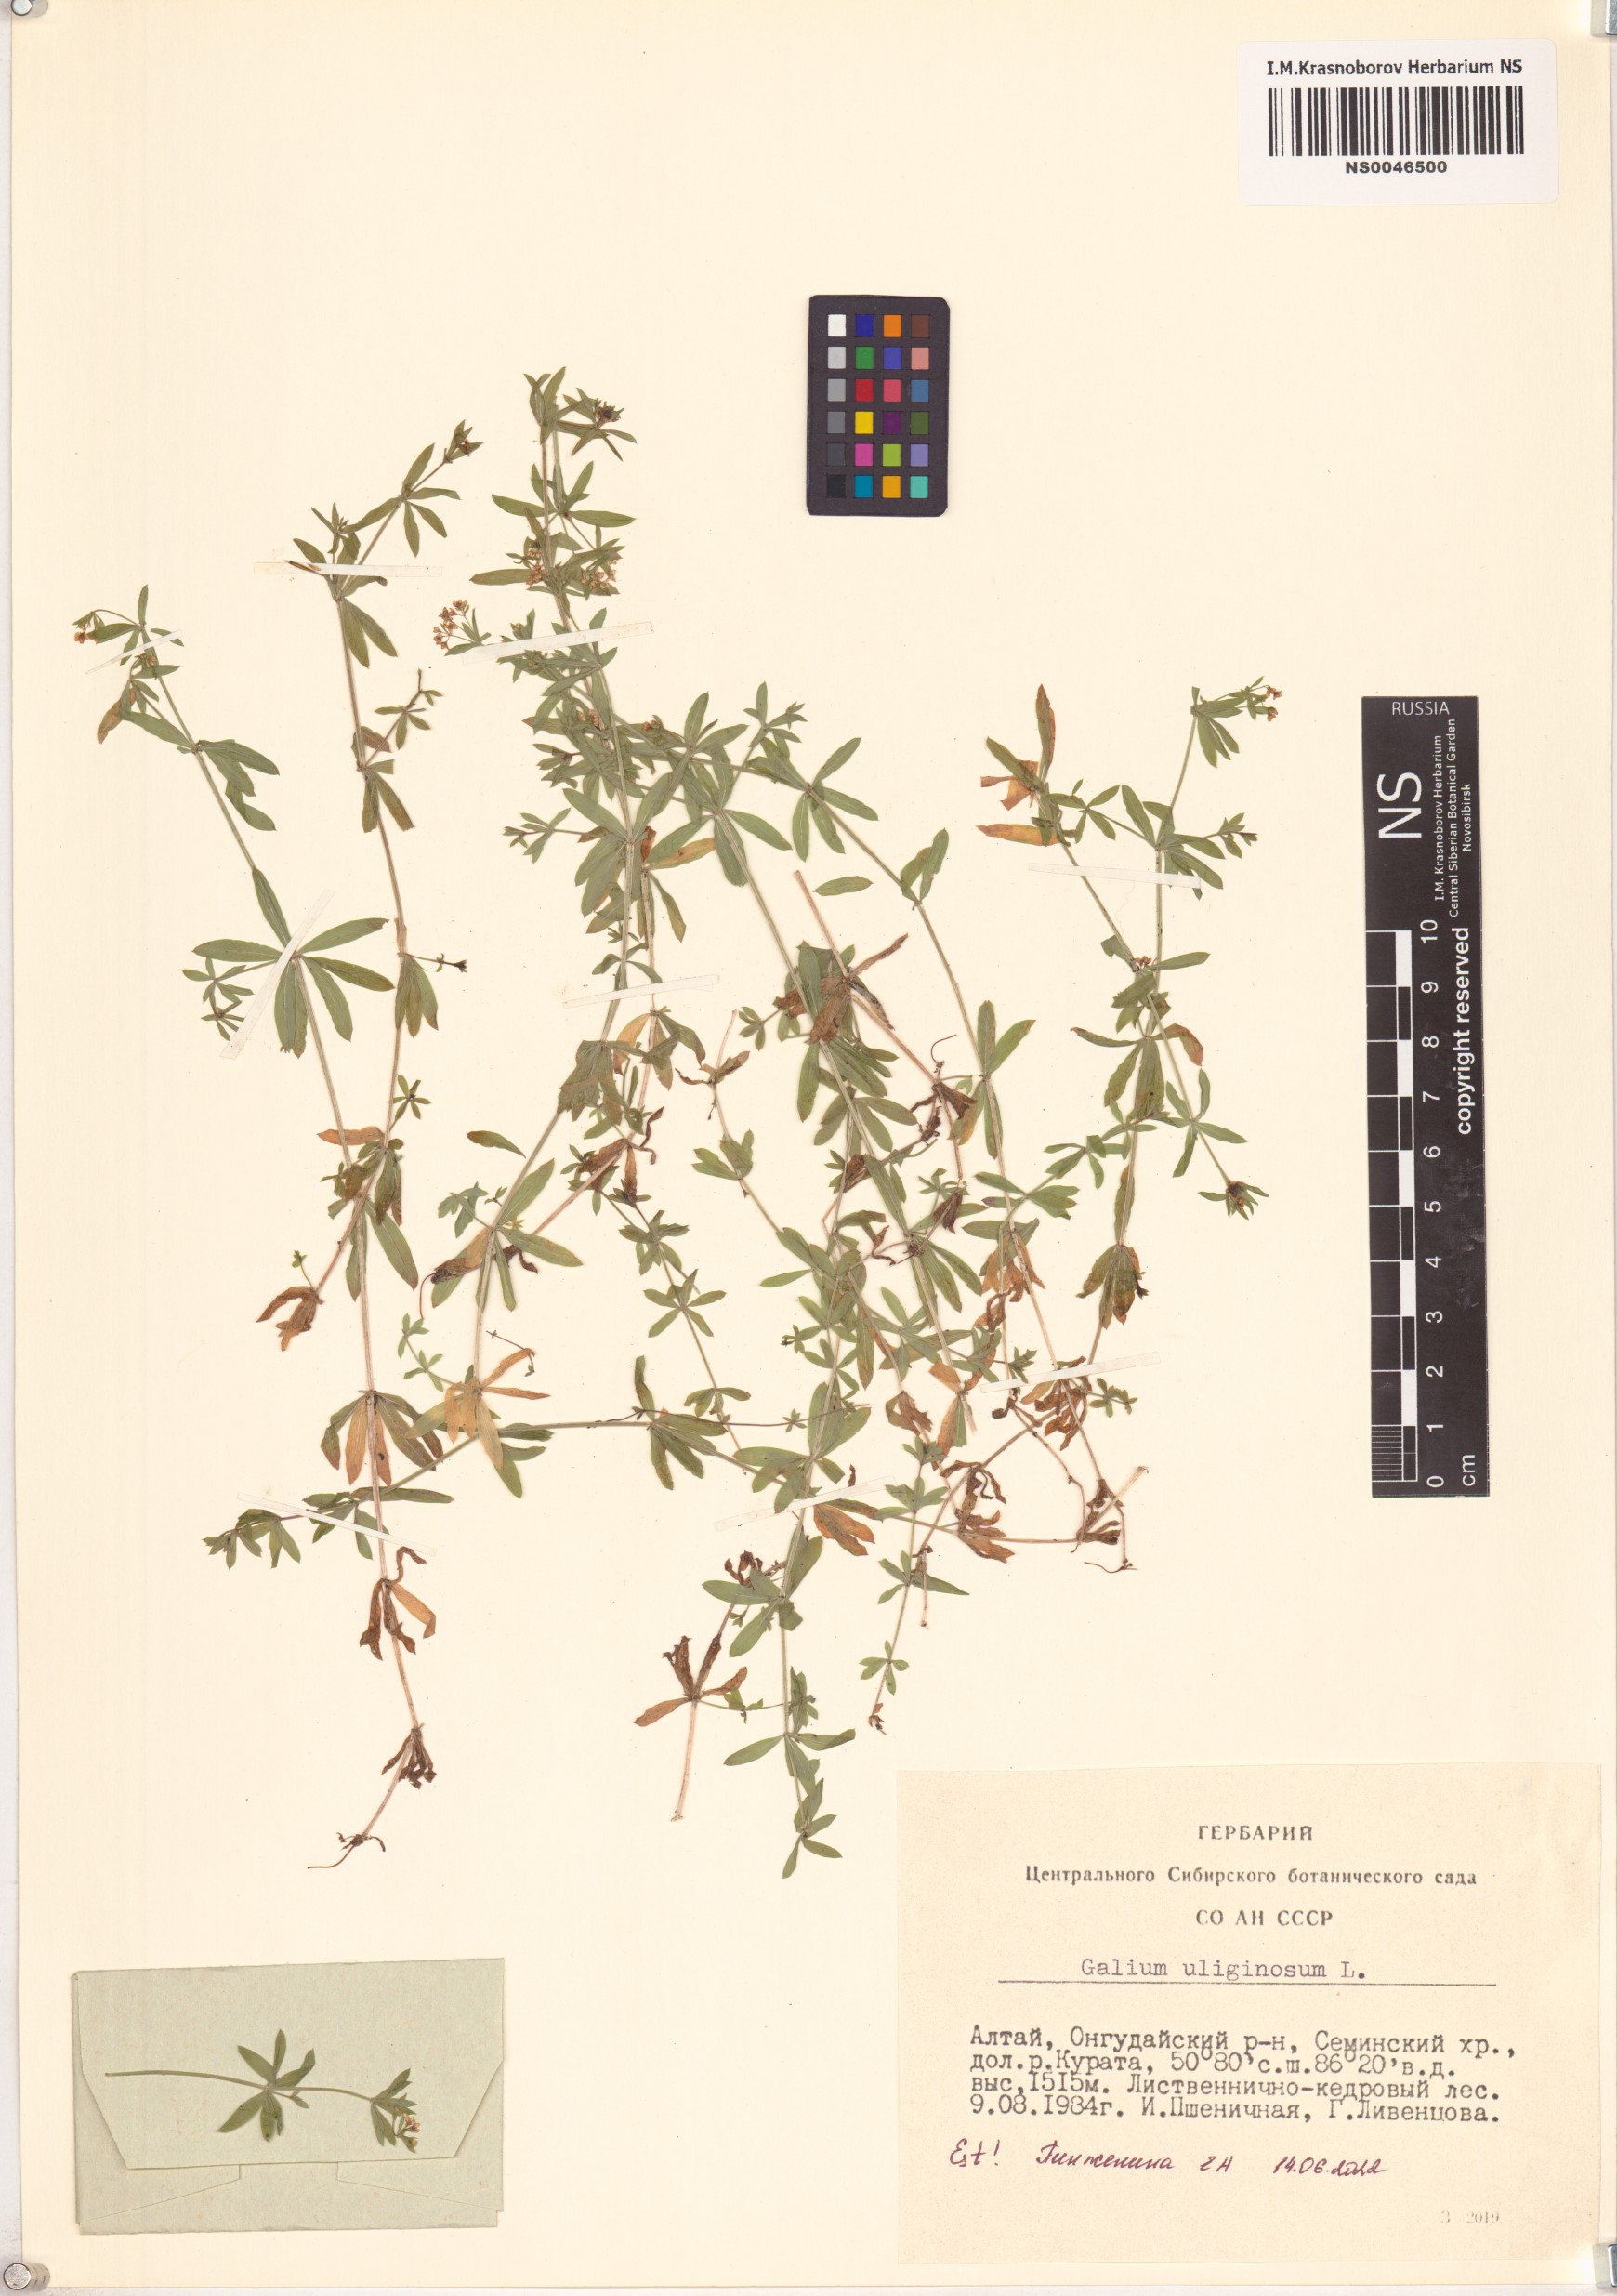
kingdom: Plantae
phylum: Tracheophyta
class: Magnoliopsida
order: Gentianales
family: Rubiaceae
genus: Galium
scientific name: Galium uliginosum
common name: Fen bedstraw
